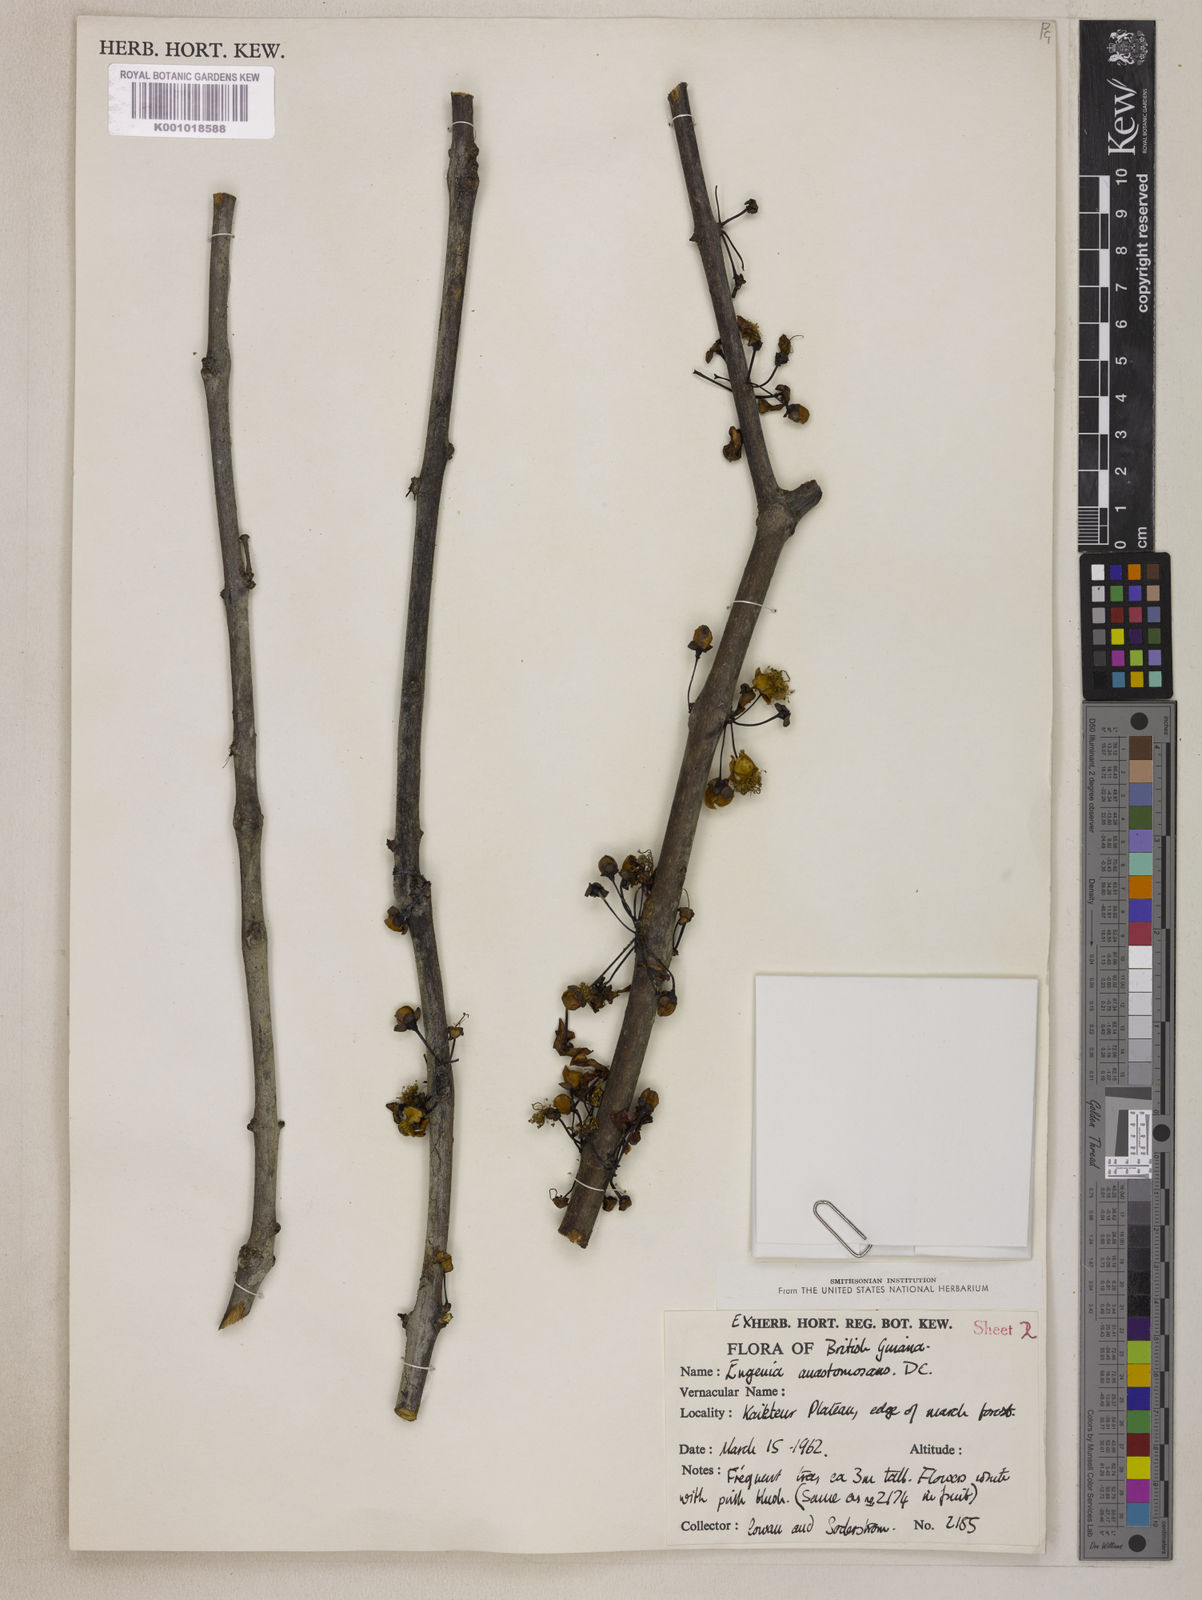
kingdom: Plantae
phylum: Tracheophyta
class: Magnoliopsida
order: Myrtales
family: Myrtaceae
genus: Eugenia
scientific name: Eugenia anastomosans
